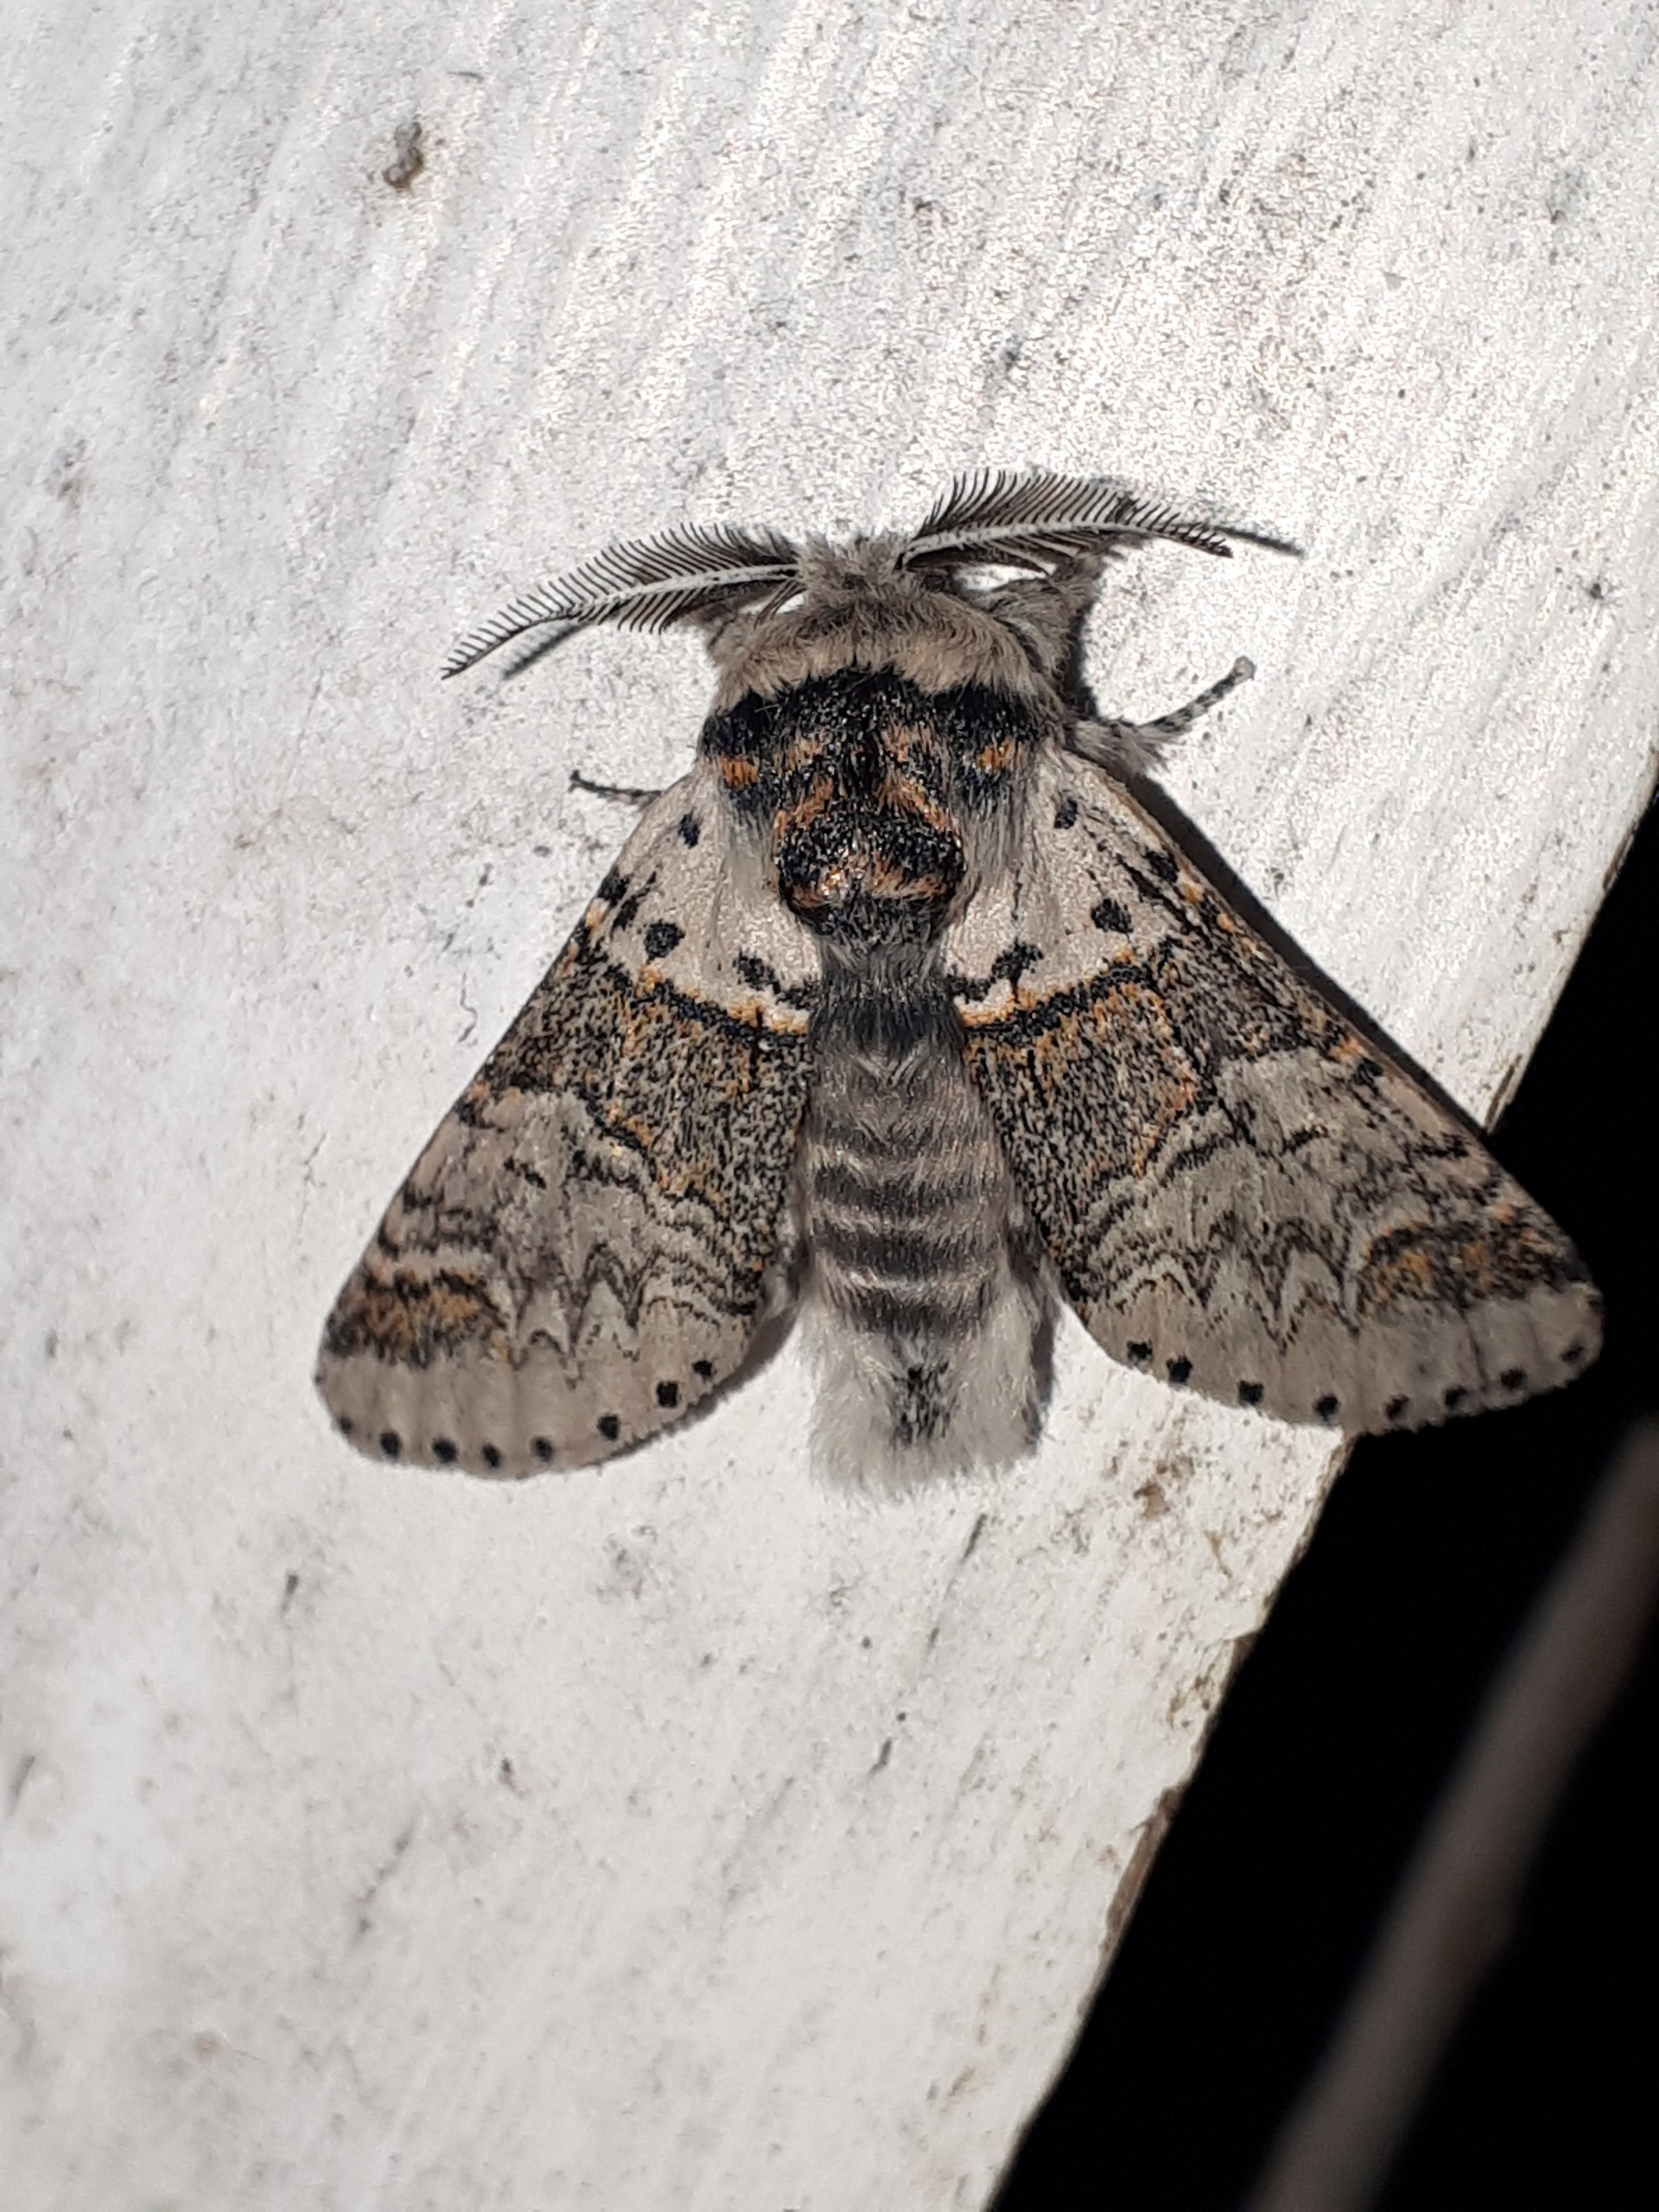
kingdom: Animalia
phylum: Arthropoda
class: Insecta
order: Lepidoptera
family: Notodontidae
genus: Furcula
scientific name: Furcula furcula
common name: Pilegaffelhale
